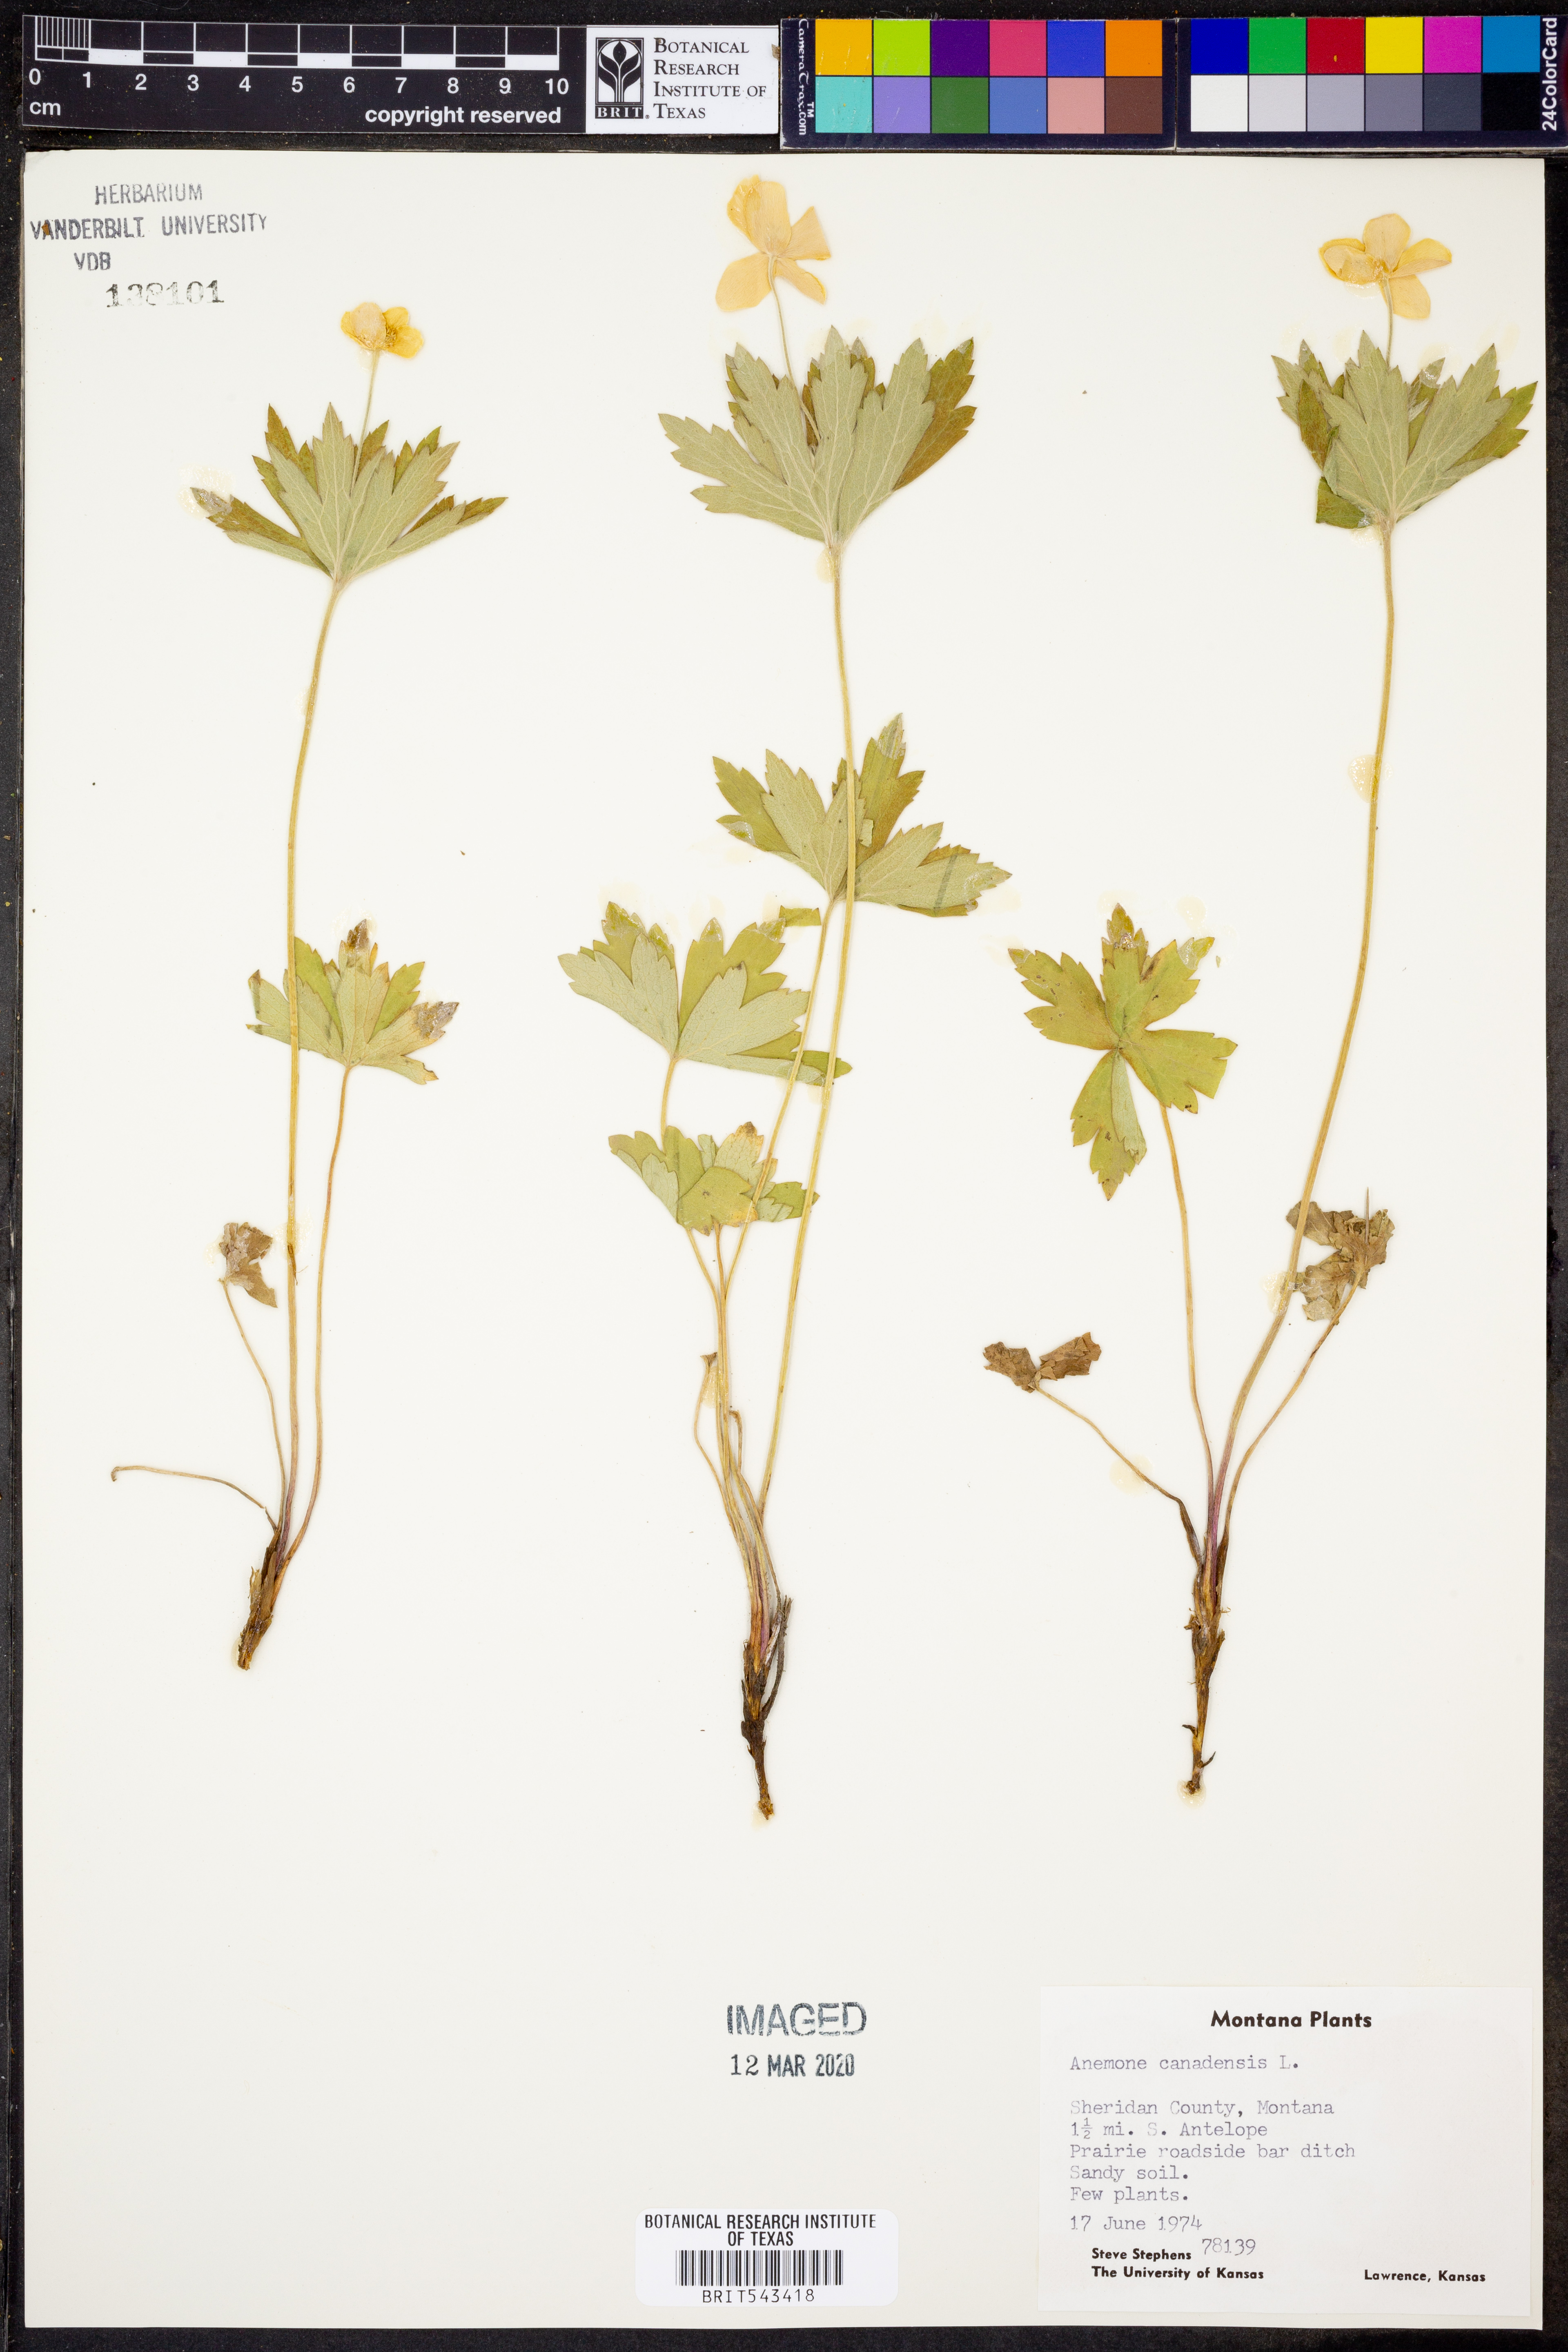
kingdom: Plantae
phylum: Tracheophyta
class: Magnoliopsida
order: Ranunculales
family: Ranunculaceae
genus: Anemonastrum
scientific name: Anemonastrum canadense
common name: Canada anemone
